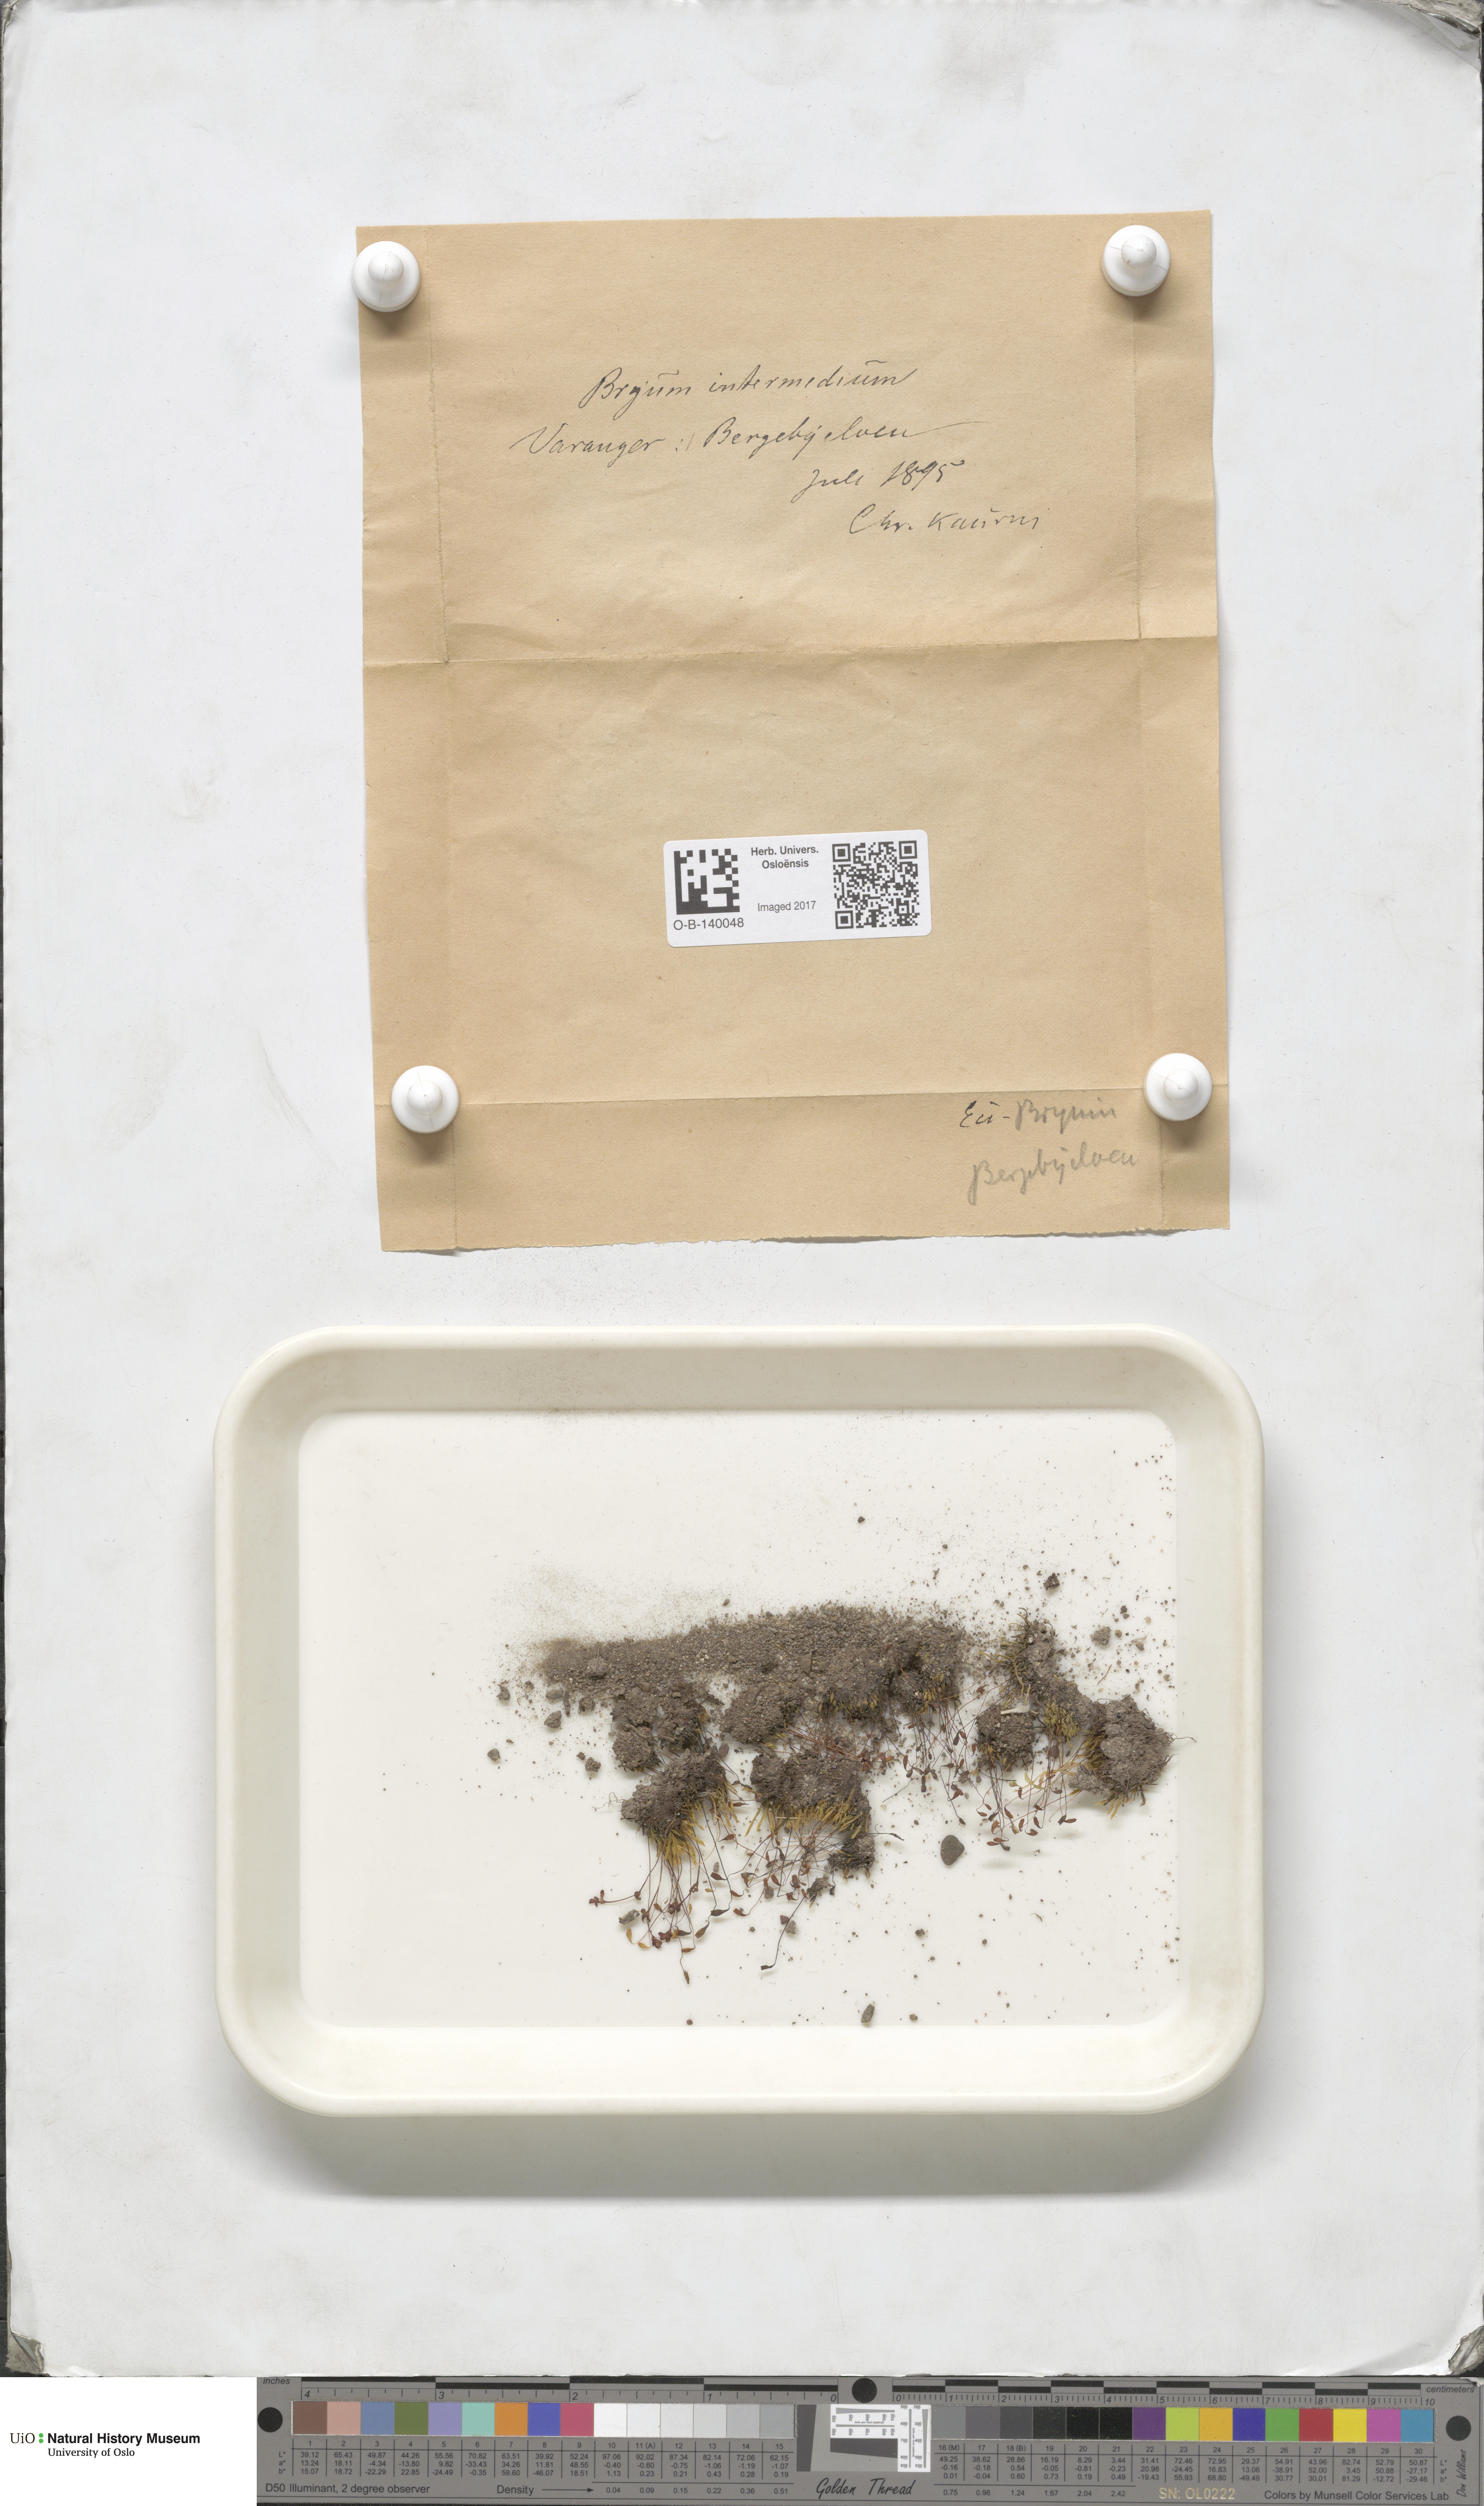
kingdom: Plantae
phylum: Bryophyta
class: Bryopsida
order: Bryales
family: Bryaceae
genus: Ptychostomum
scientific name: Ptychostomum intermedium
